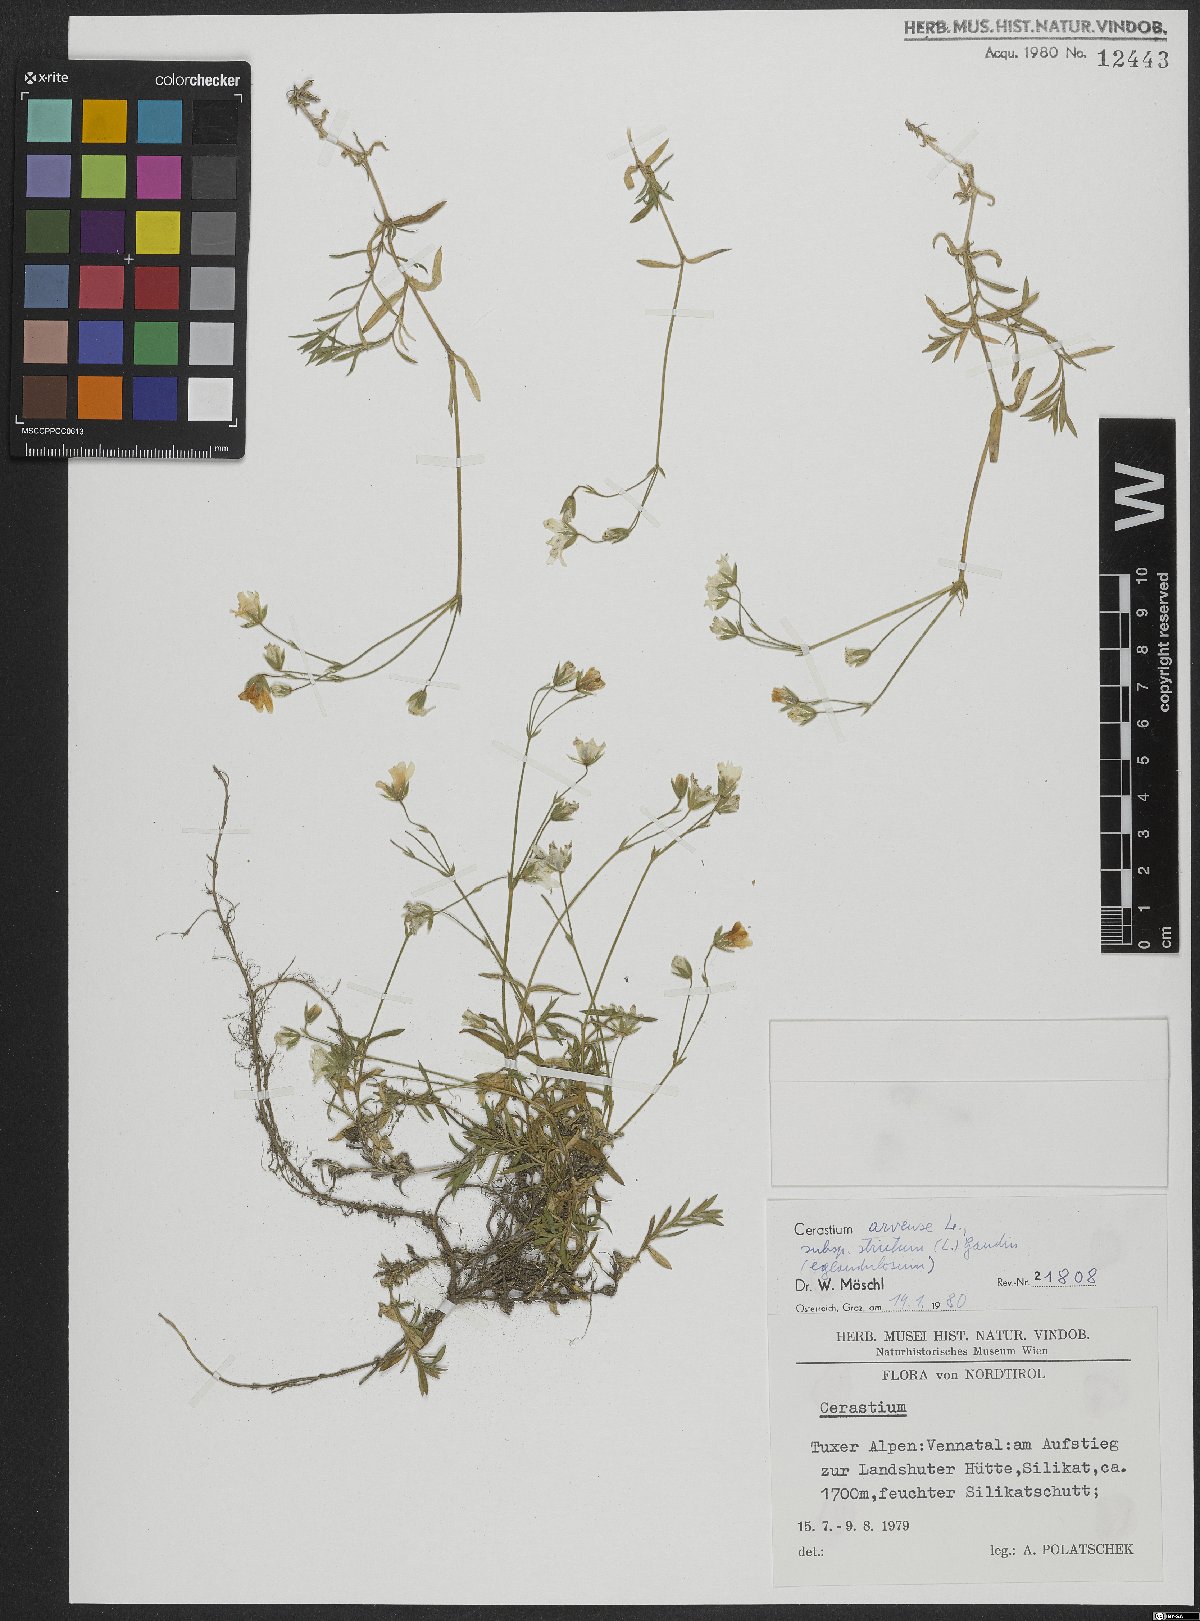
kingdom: Plantae
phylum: Tracheophyta
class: Magnoliopsida
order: Caryophyllales
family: Caryophyllaceae
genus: Cerastium
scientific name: Cerastium elongatum
